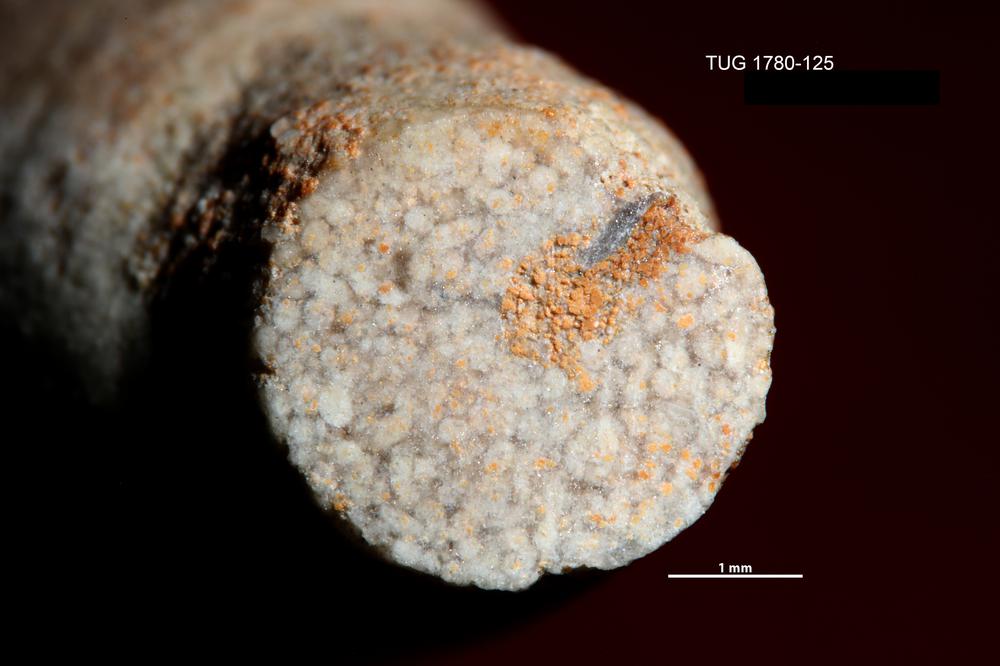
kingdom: Animalia
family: Coprulidae
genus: Coprulus
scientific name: Coprulus
